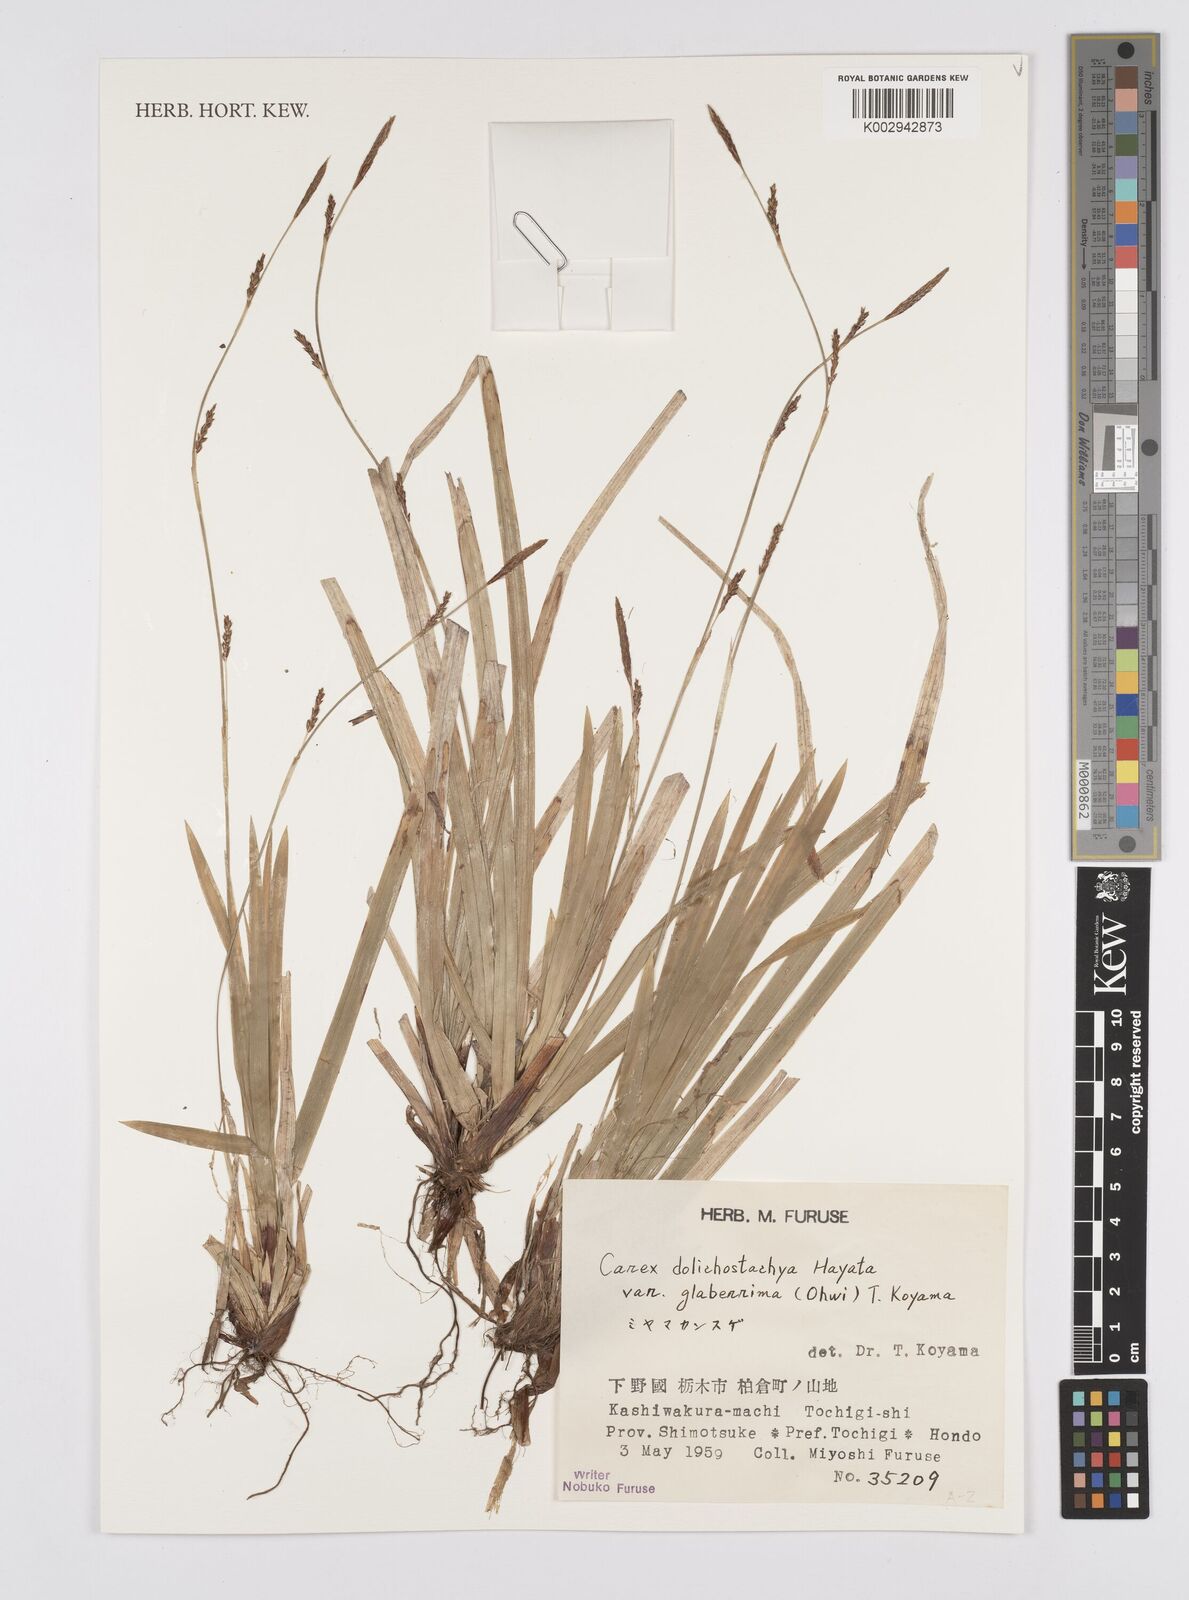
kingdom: Plantae
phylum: Tracheophyta
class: Liliopsida
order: Poales
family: Cyperaceae
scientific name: Cyperaceae
